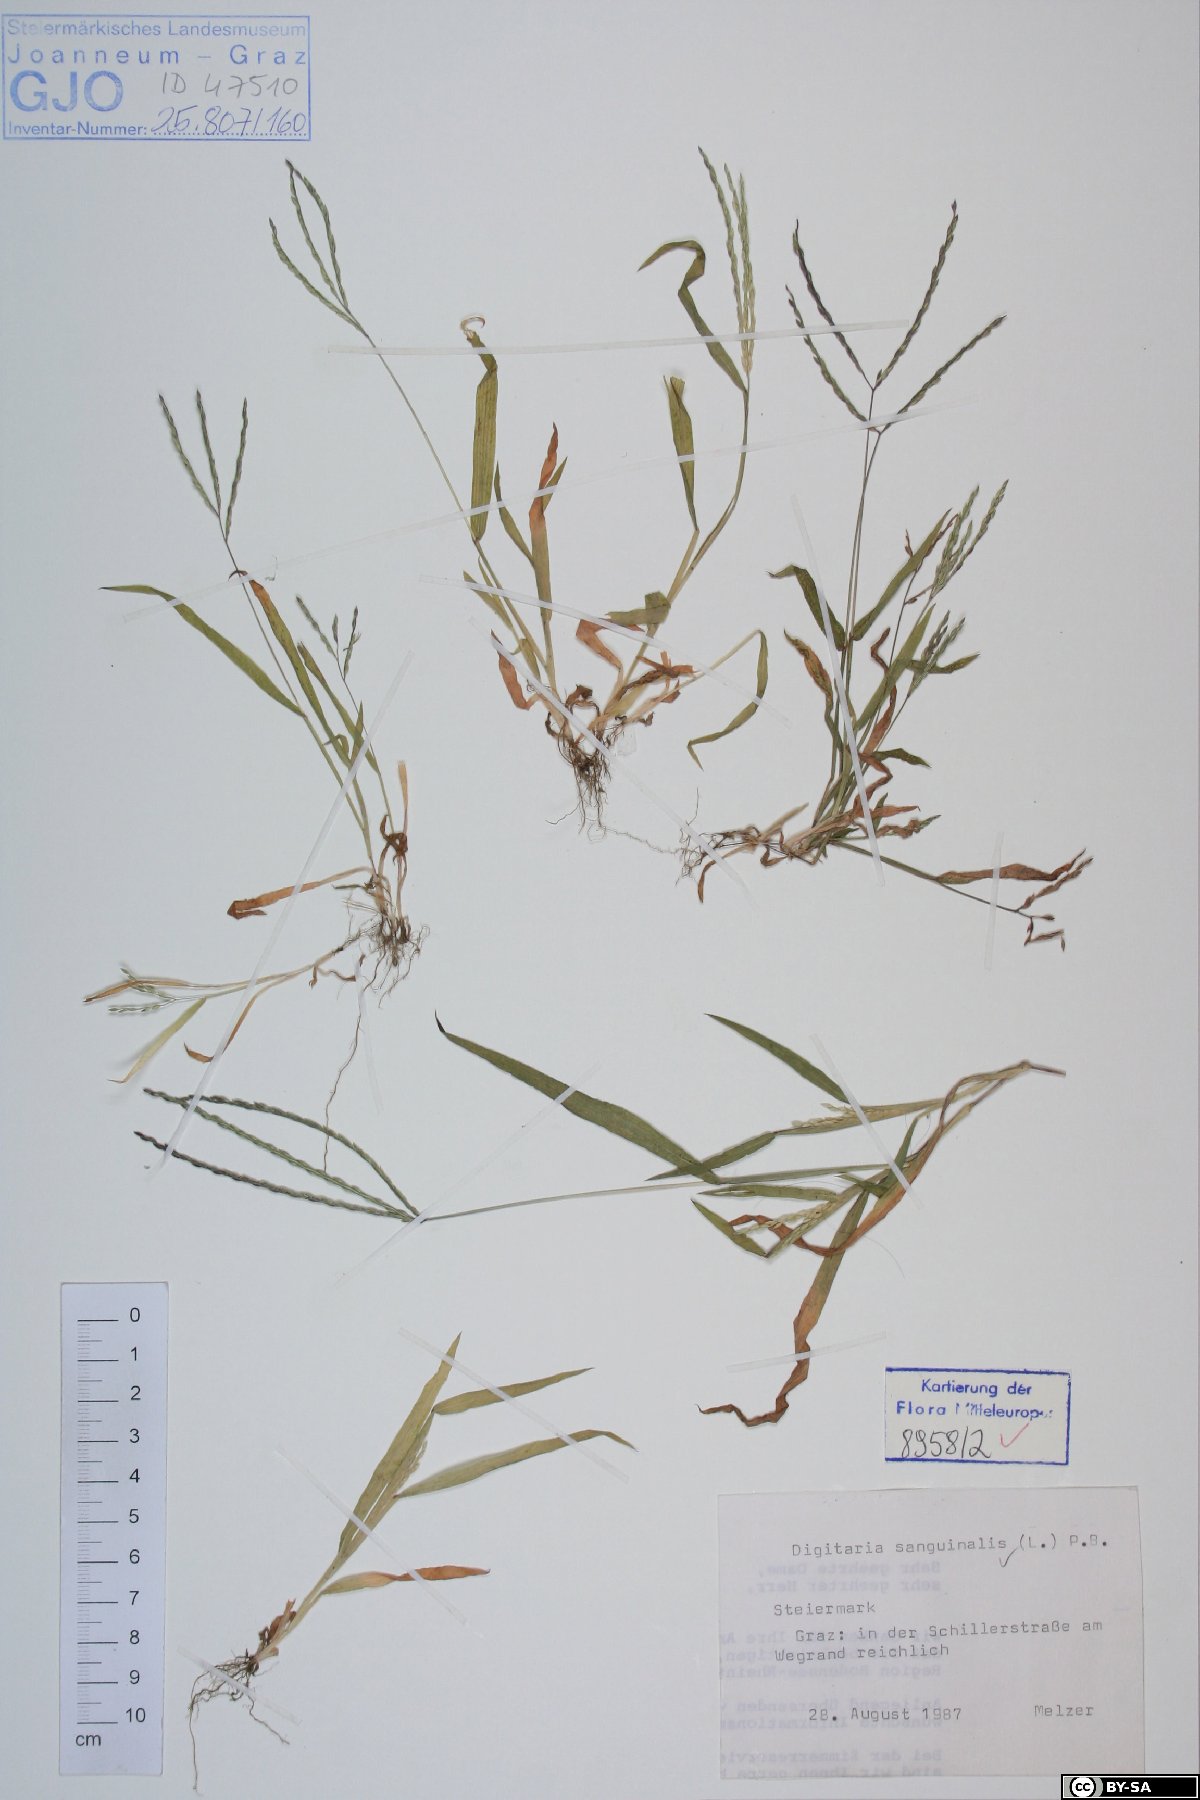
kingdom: Plantae
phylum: Tracheophyta
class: Liliopsida
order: Poales
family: Poaceae
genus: Digitaria
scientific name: Digitaria sanguinalis
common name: Hairy crabgrass
